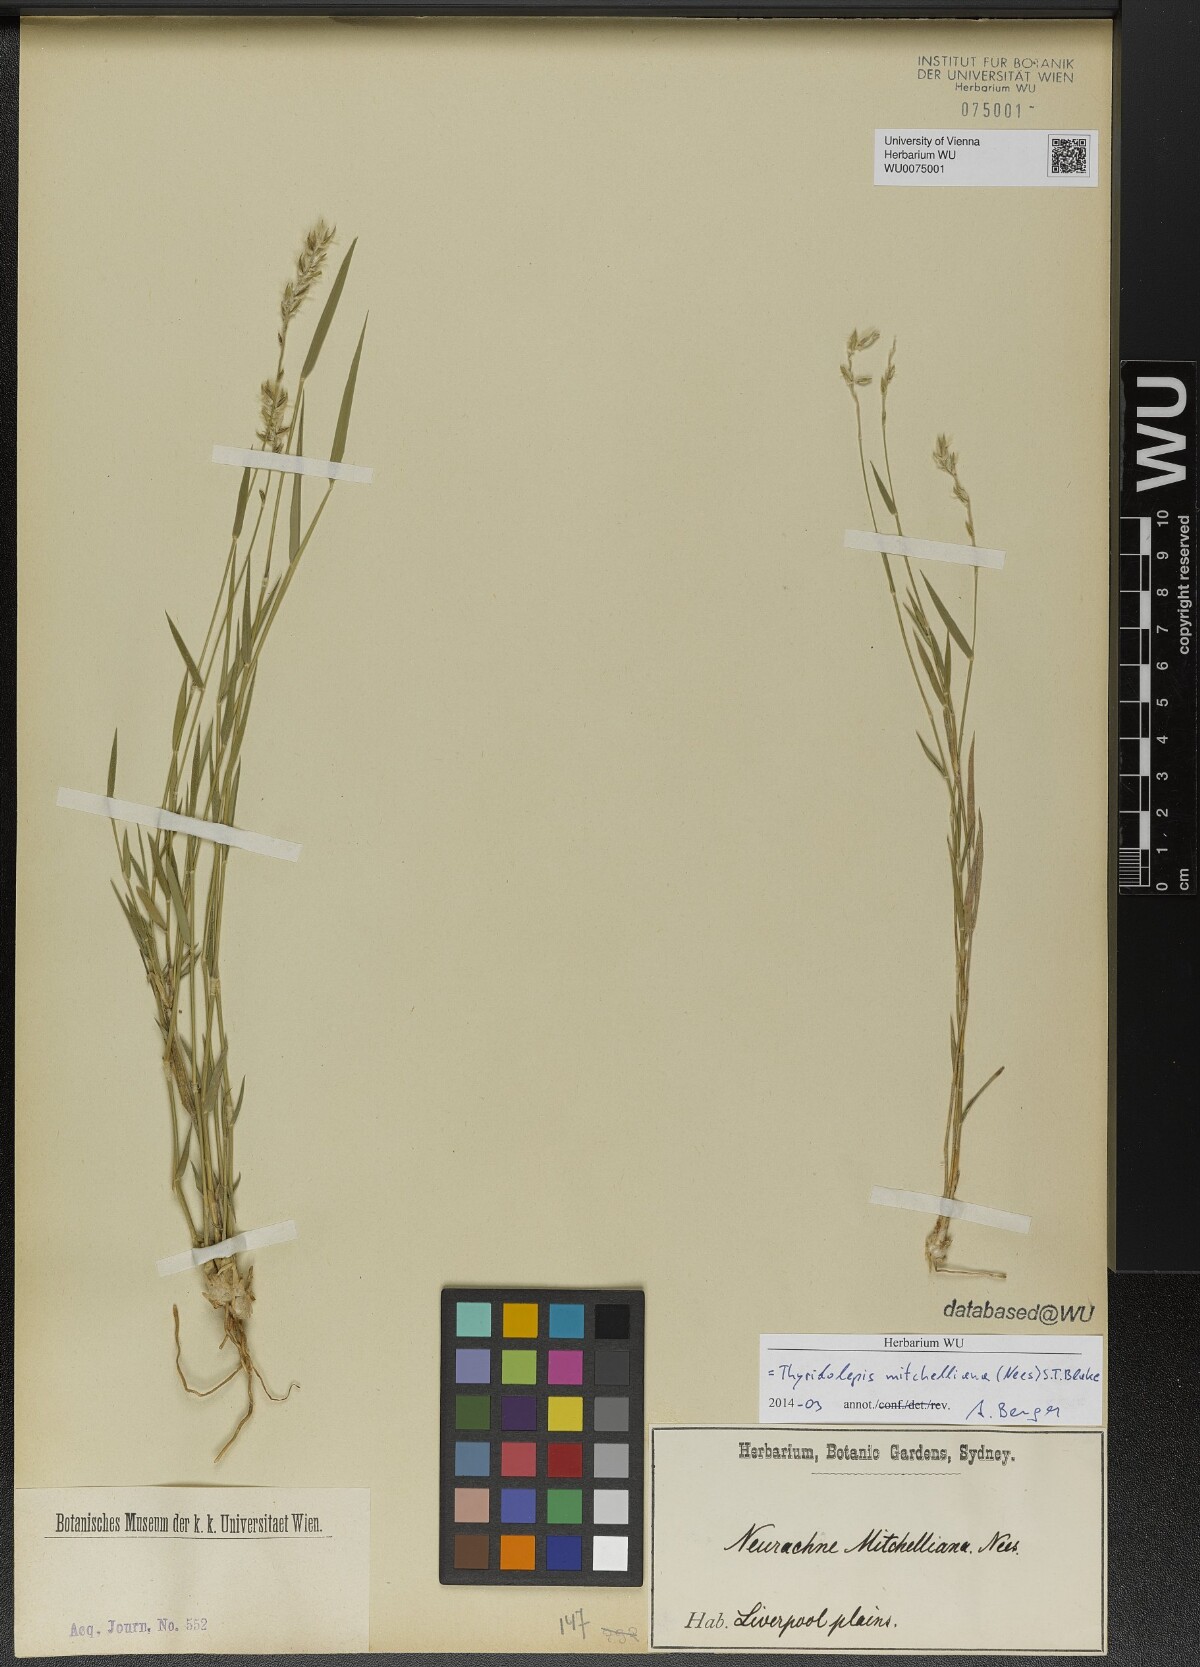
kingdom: Plantae
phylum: Tracheophyta
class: Liliopsida
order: Poales
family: Poaceae
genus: Thyridolepis
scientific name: Thyridolepis mitchelliana
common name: Rock tassel grass
